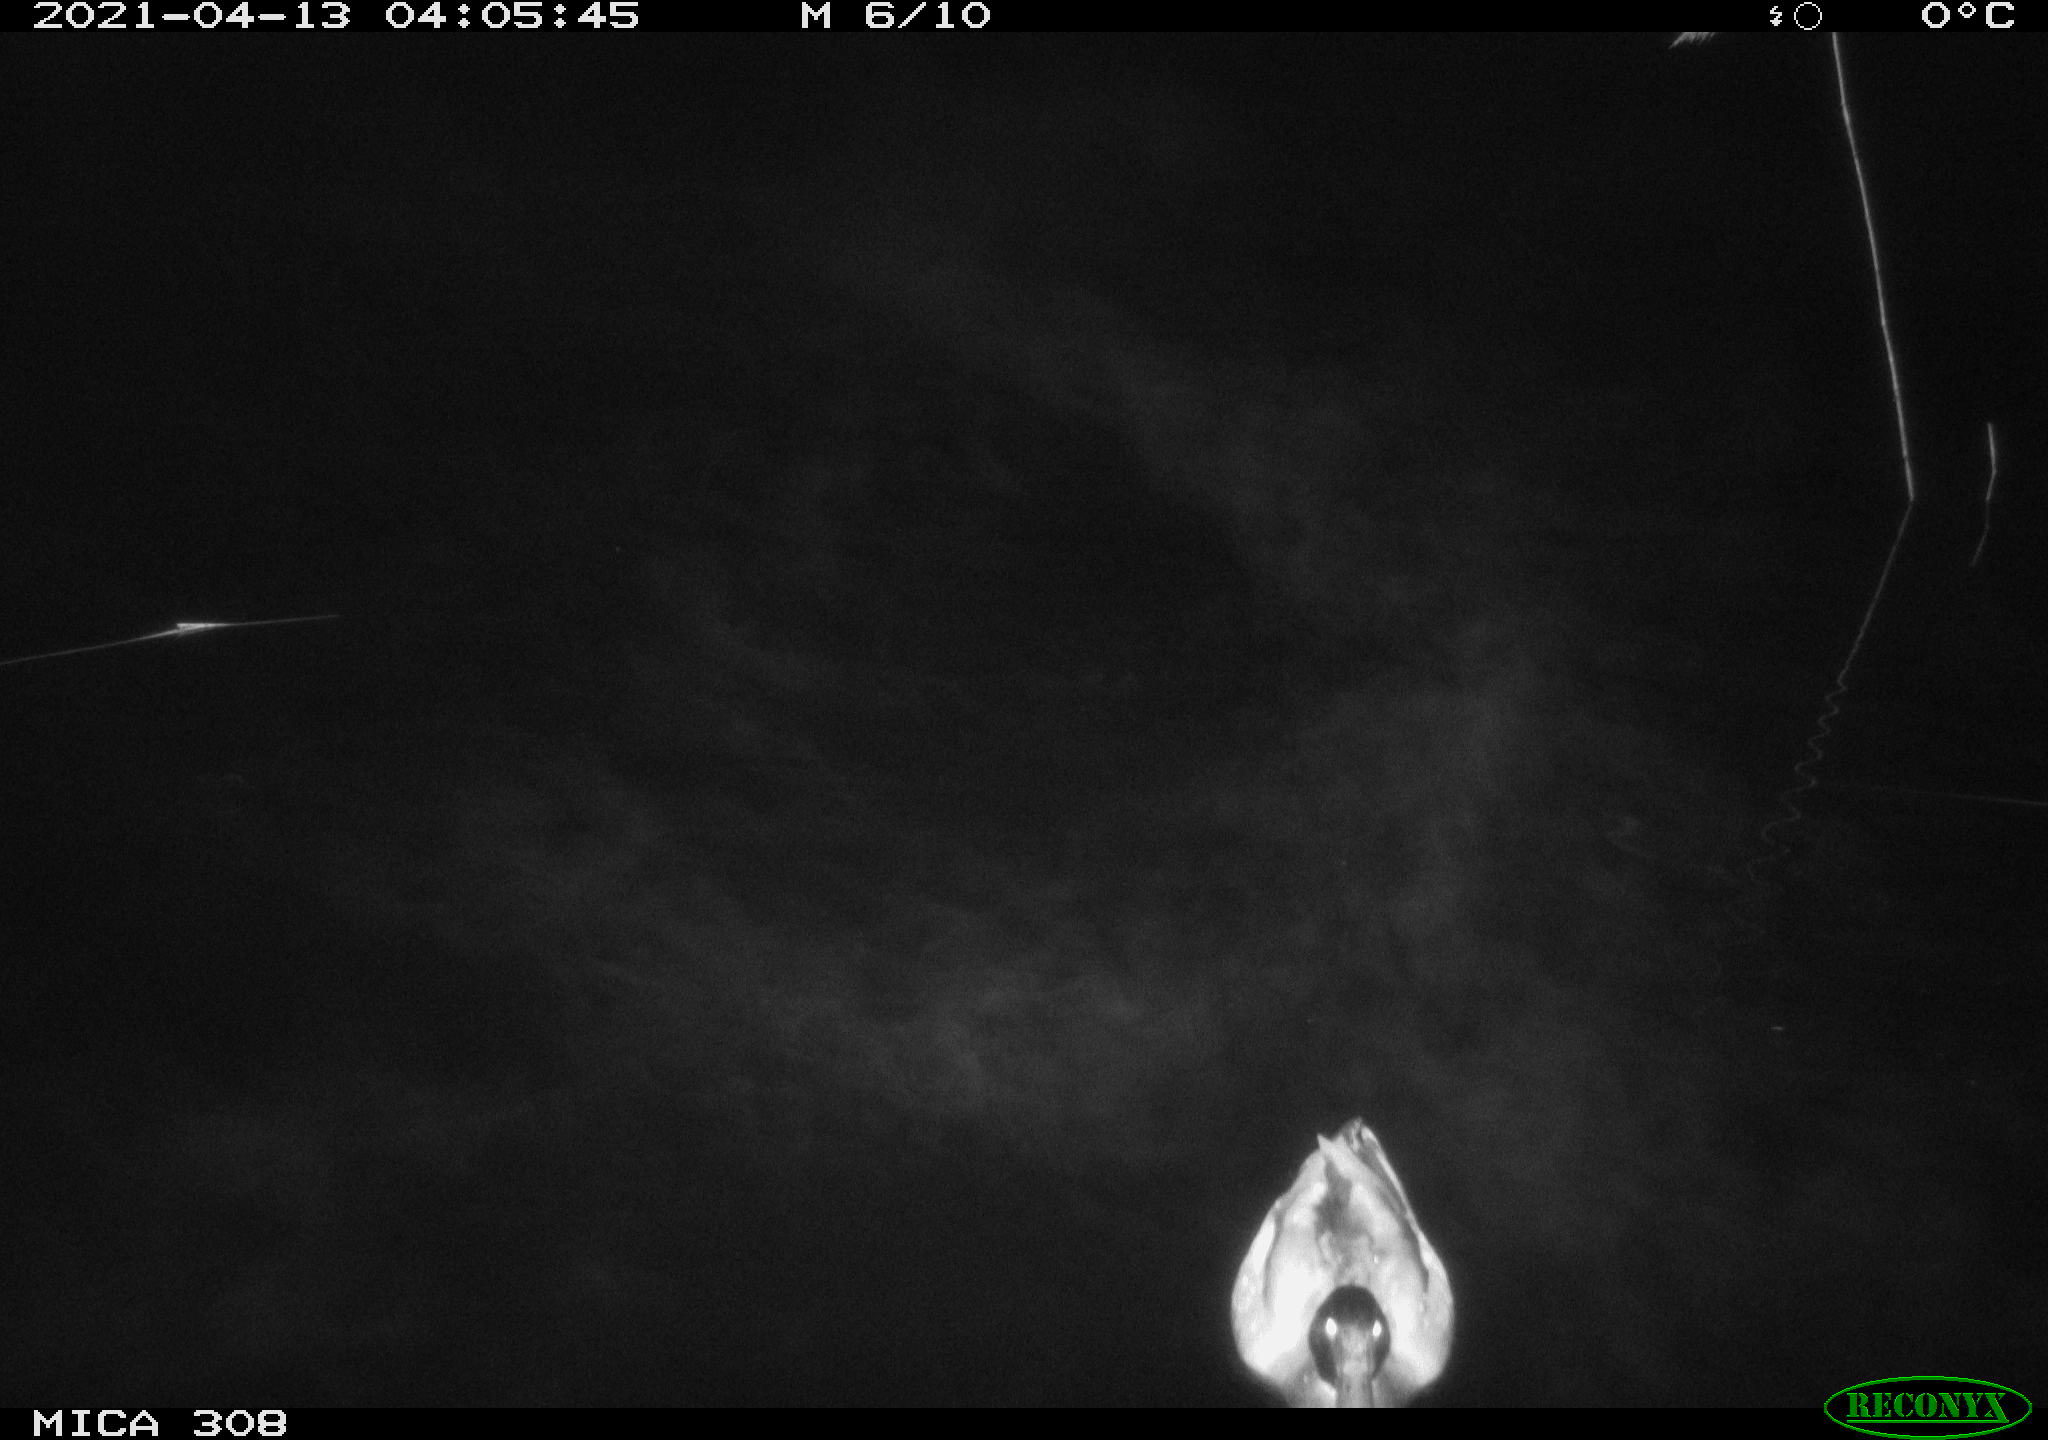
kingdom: Animalia
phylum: Chordata
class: Aves
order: Anseriformes
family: Anatidae
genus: Anas
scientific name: Anas platyrhynchos
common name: Mallard
